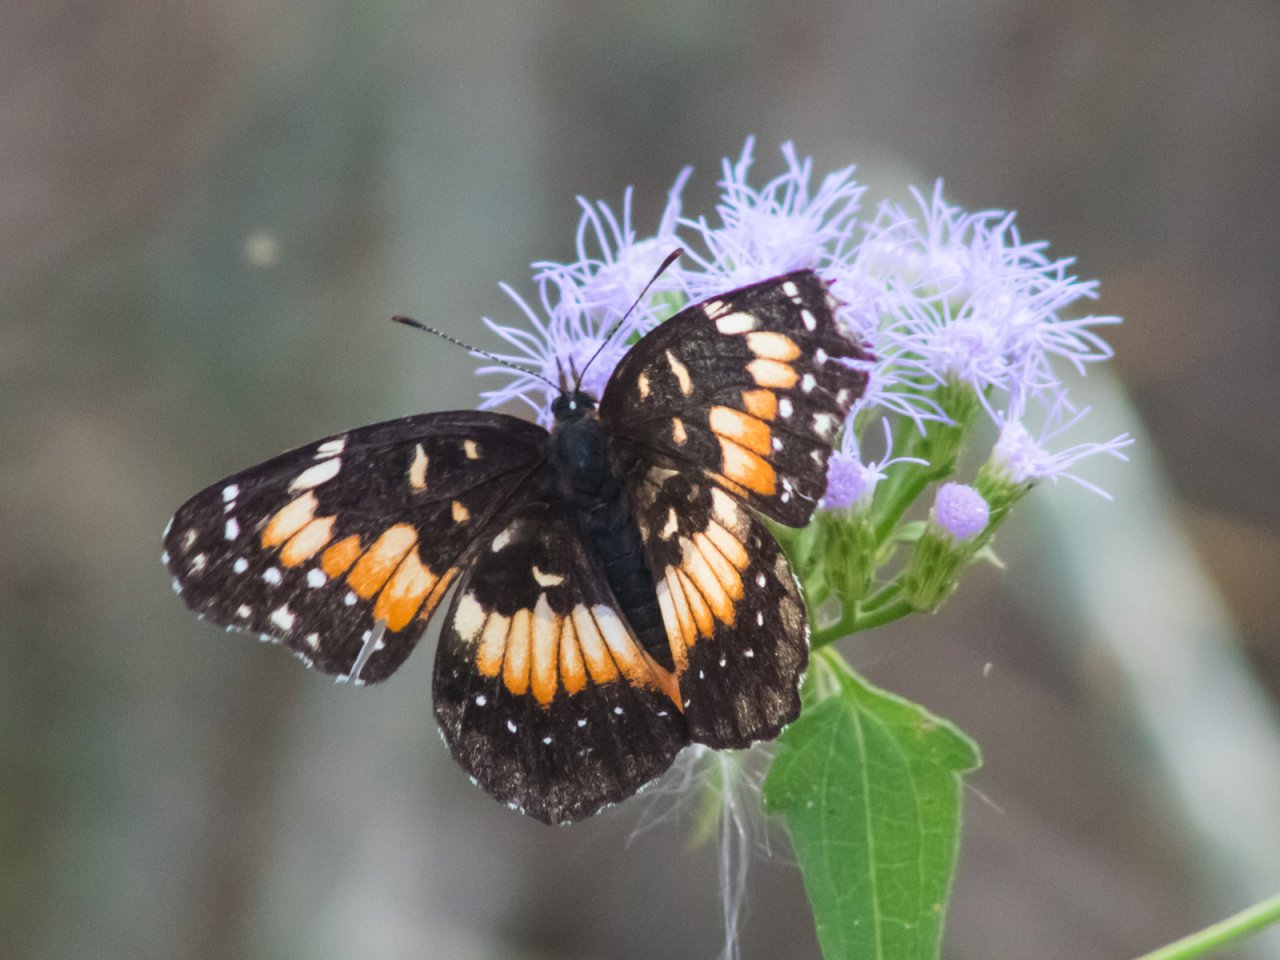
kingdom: Animalia
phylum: Arthropoda
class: Insecta
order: Lepidoptera
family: Nymphalidae
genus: Chlosyne
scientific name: Chlosyne lacinia
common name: Bordered Patch
